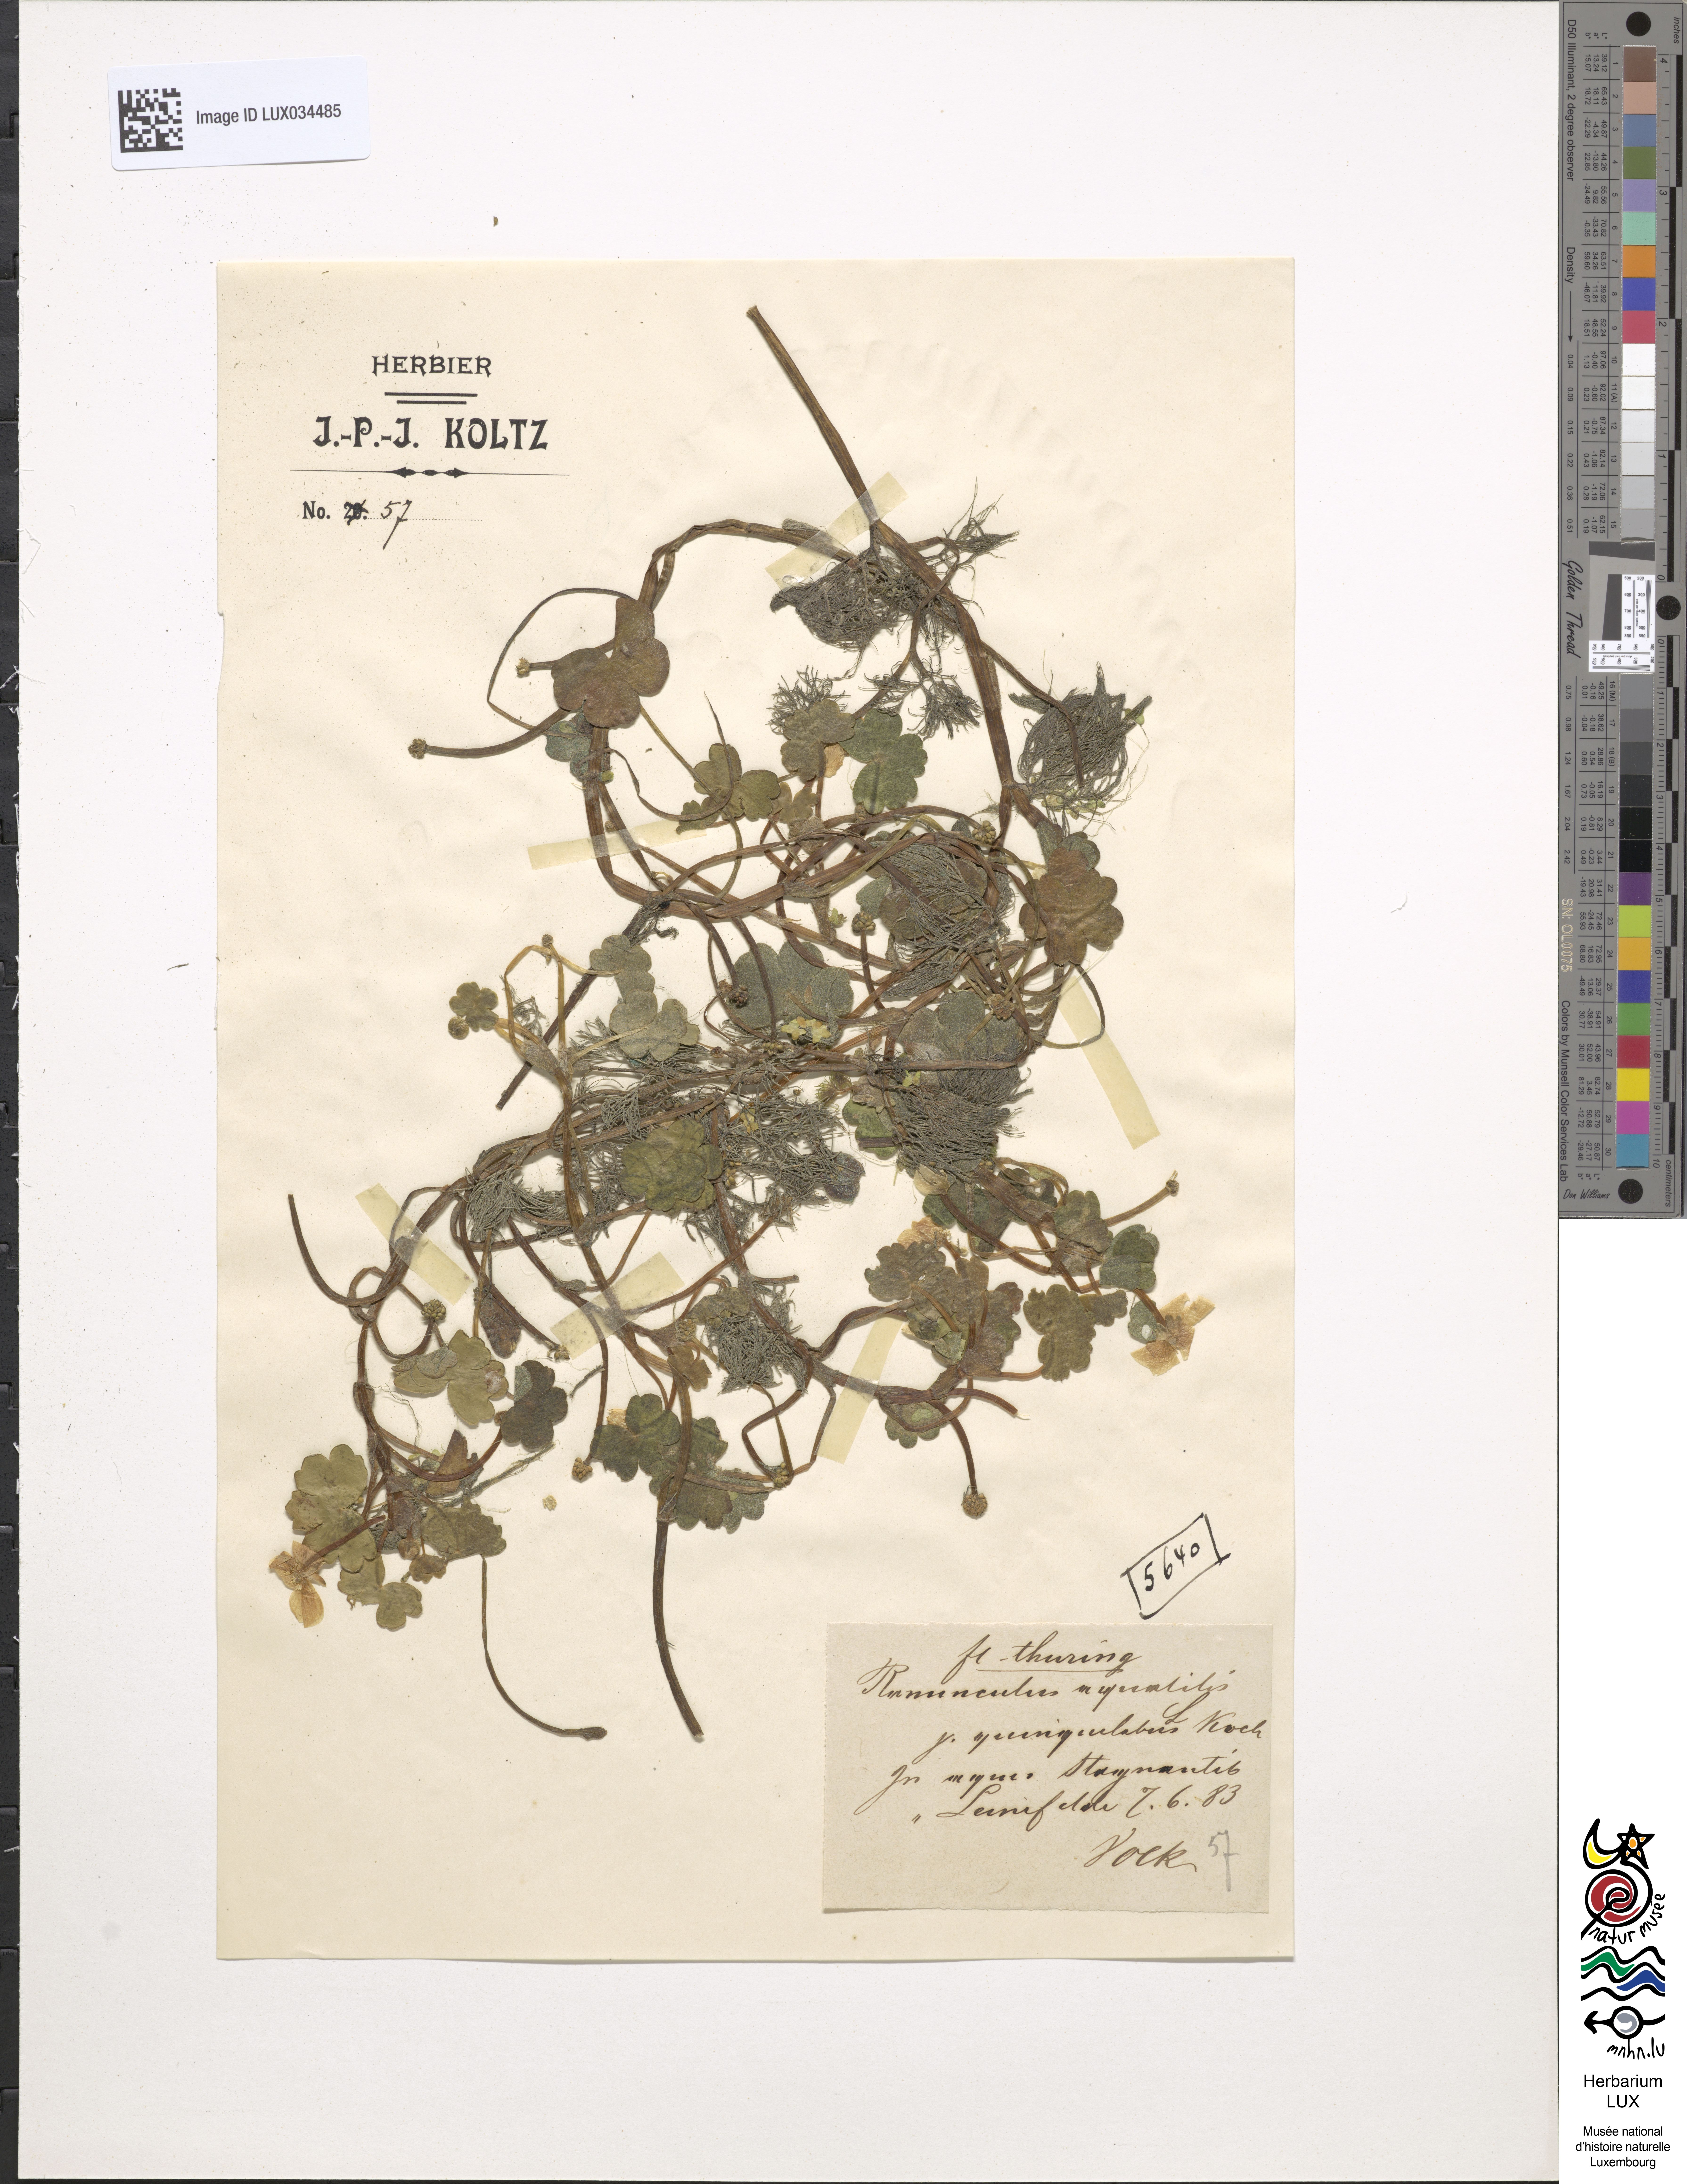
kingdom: Plantae
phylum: Tracheophyta
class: Magnoliopsida
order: Ranunculales
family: Ranunculaceae
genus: Ranunculus
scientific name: Ranunculus peltatus
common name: Pond water-crowfoot
